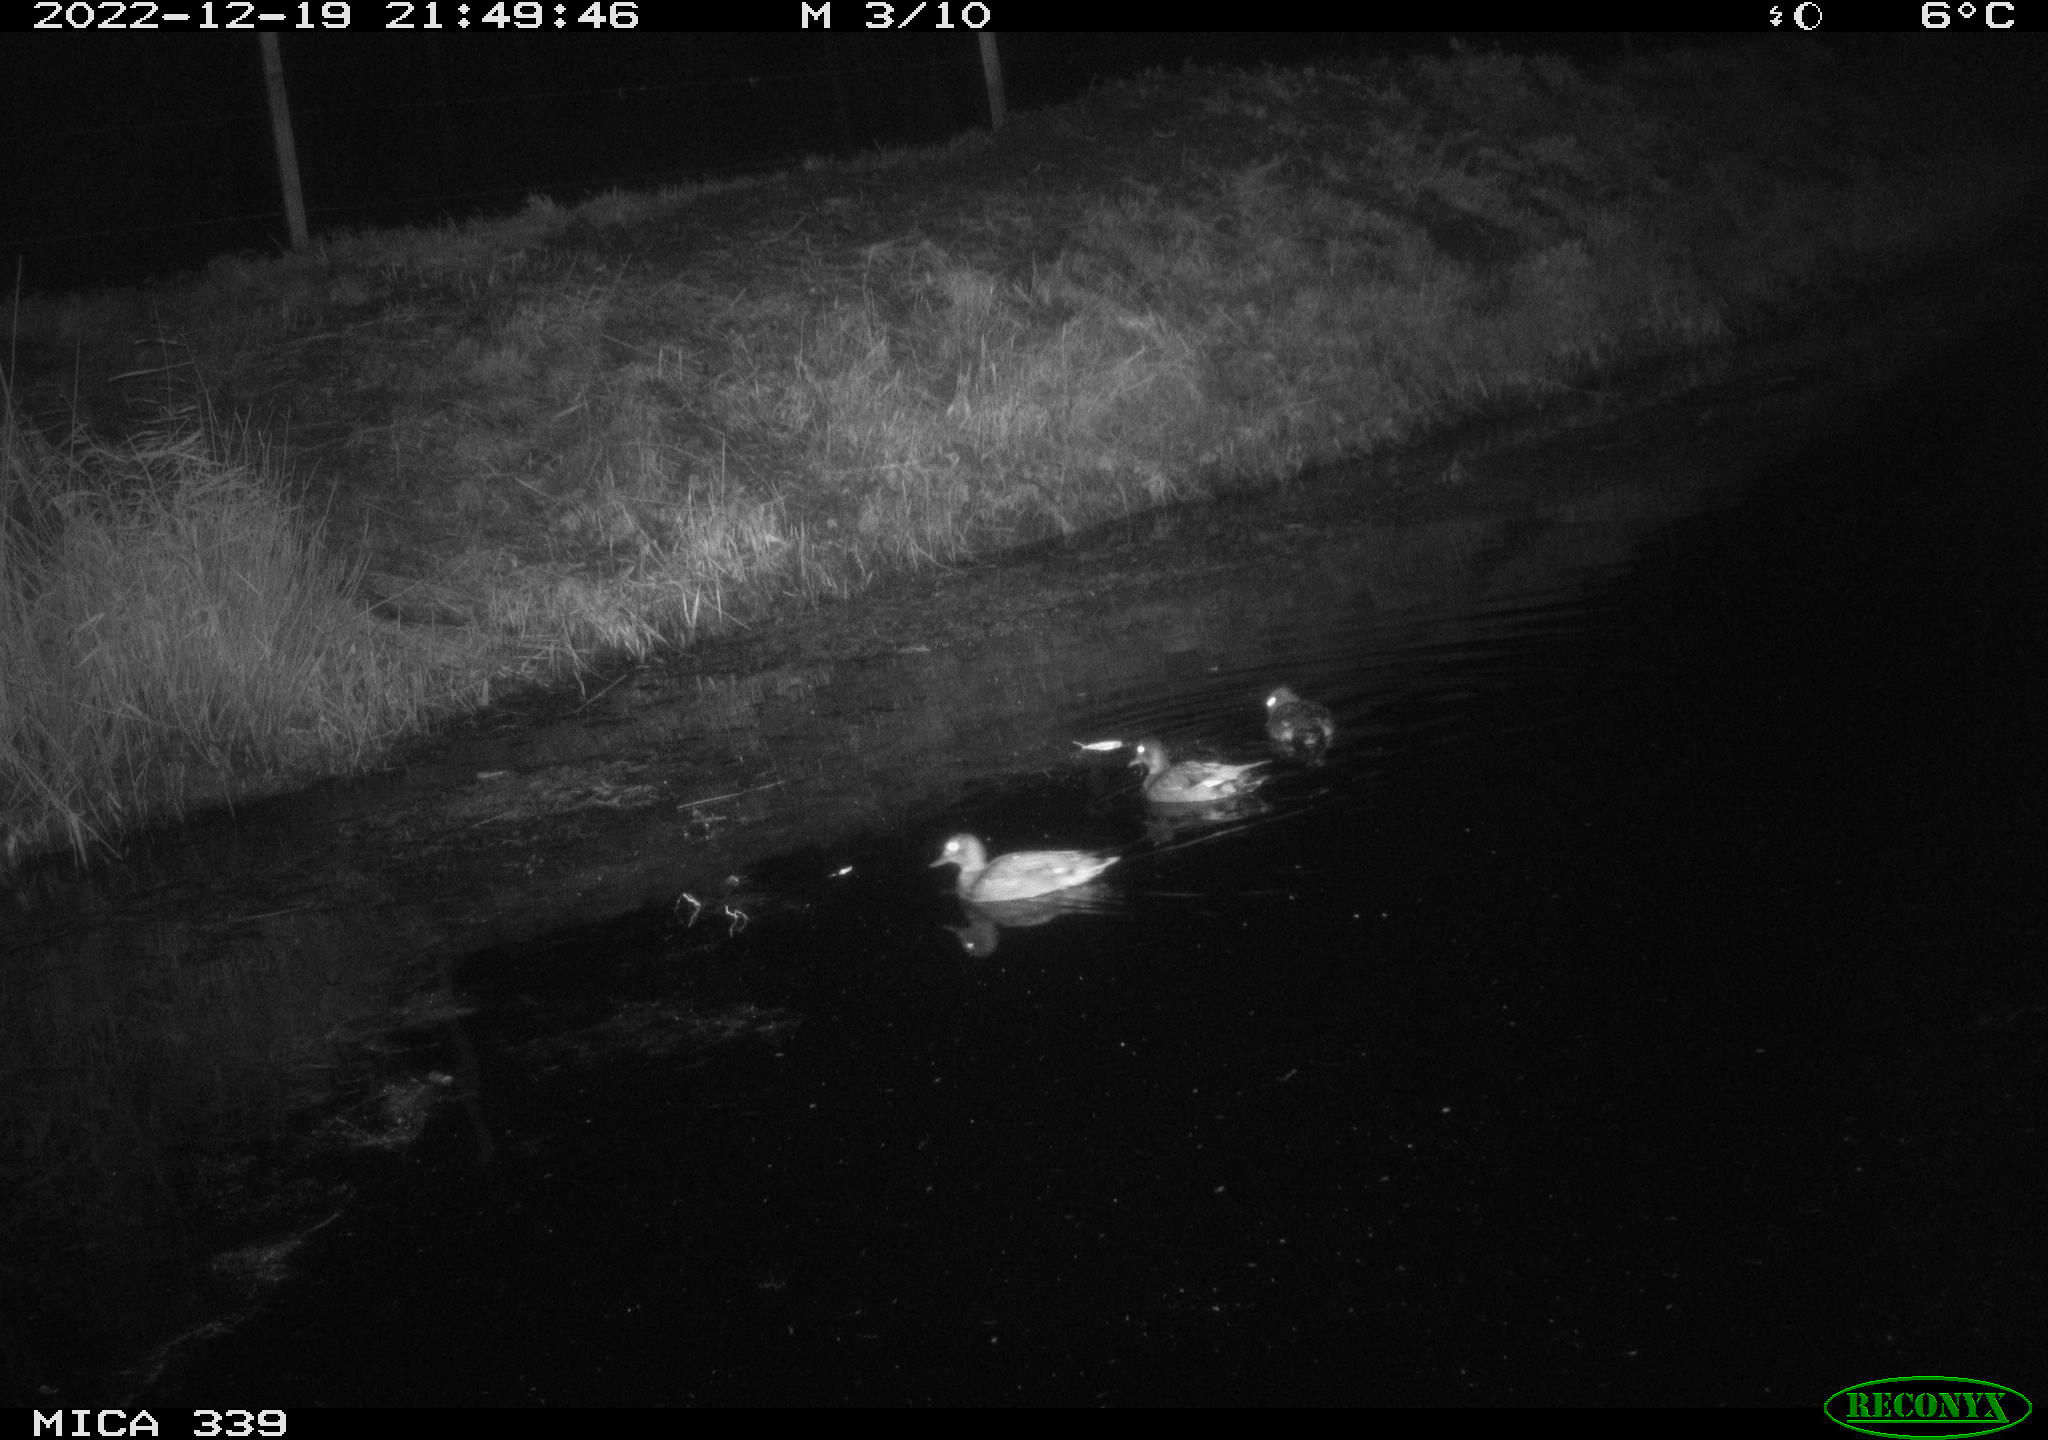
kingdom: Animalia
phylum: Chordata
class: Aves
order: Anseriformes
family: Anatidae
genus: Anas
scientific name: Anas
